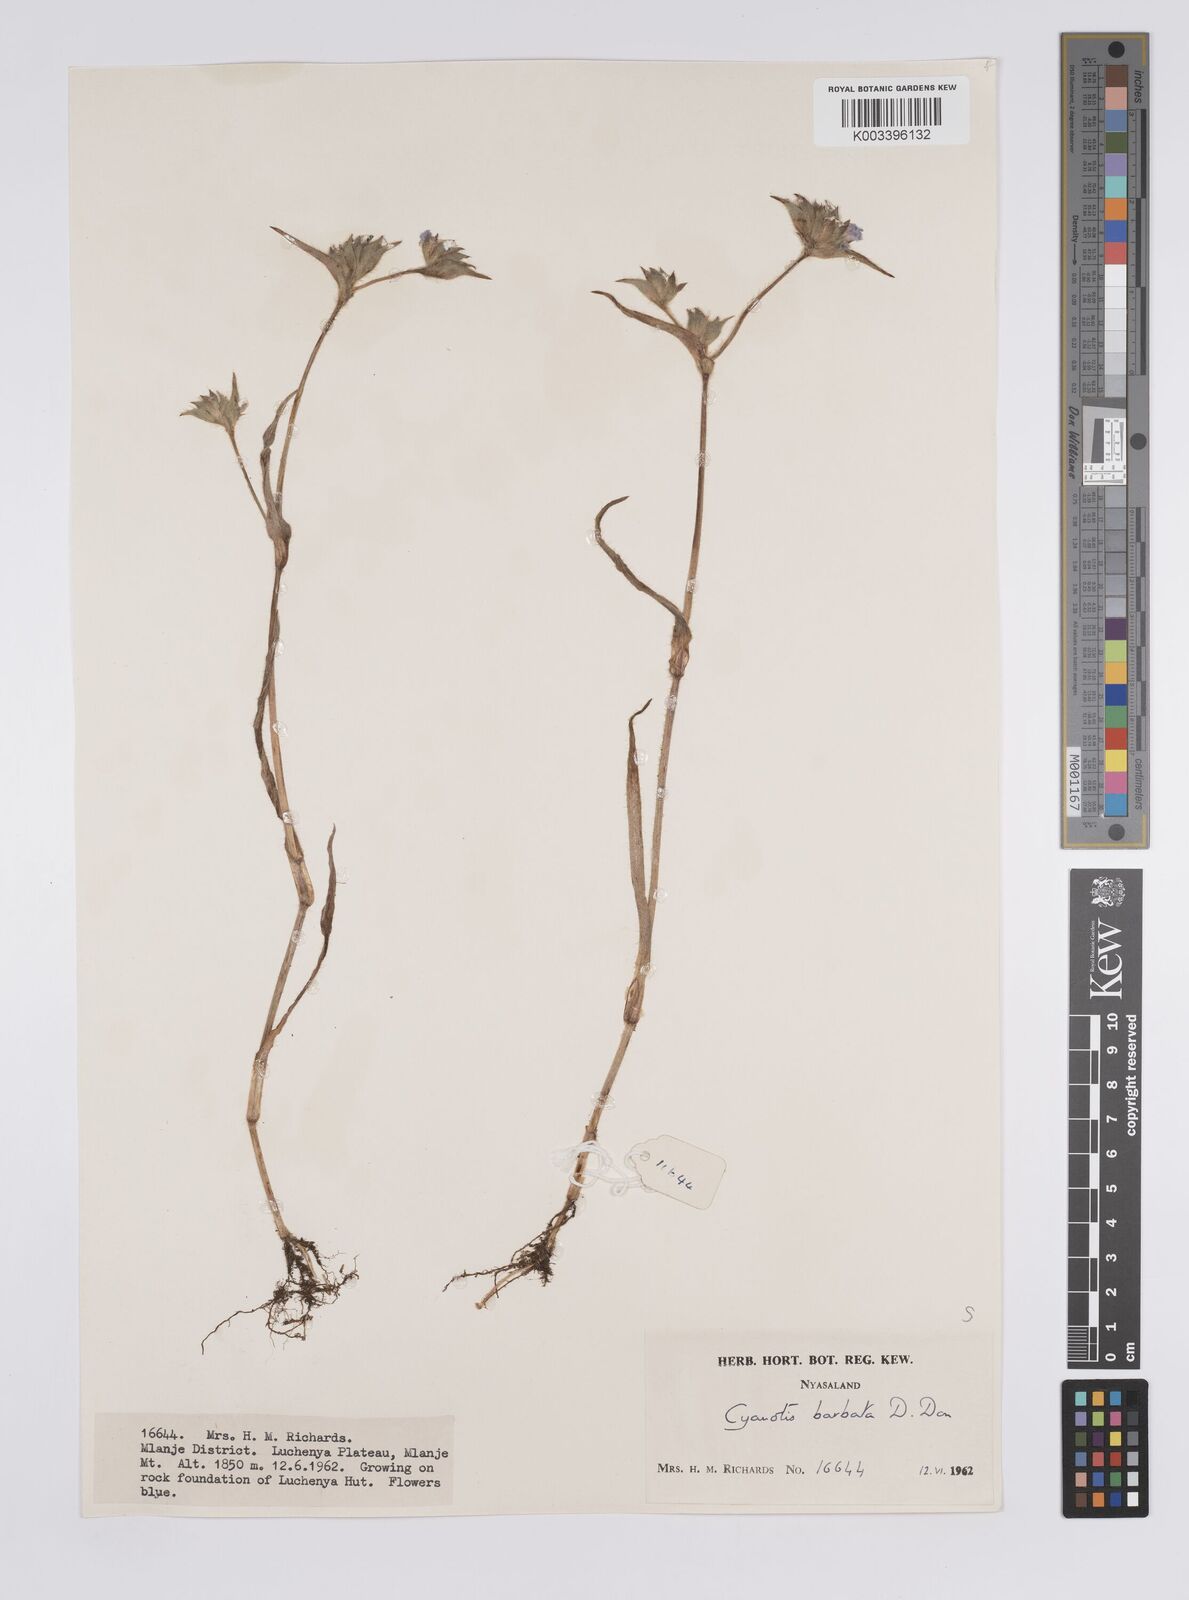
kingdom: Plantae
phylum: Tracheophyta
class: Liliopsida
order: Commelinales
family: Commelinaceae
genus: Cyanotis
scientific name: Cyanotis vaga
